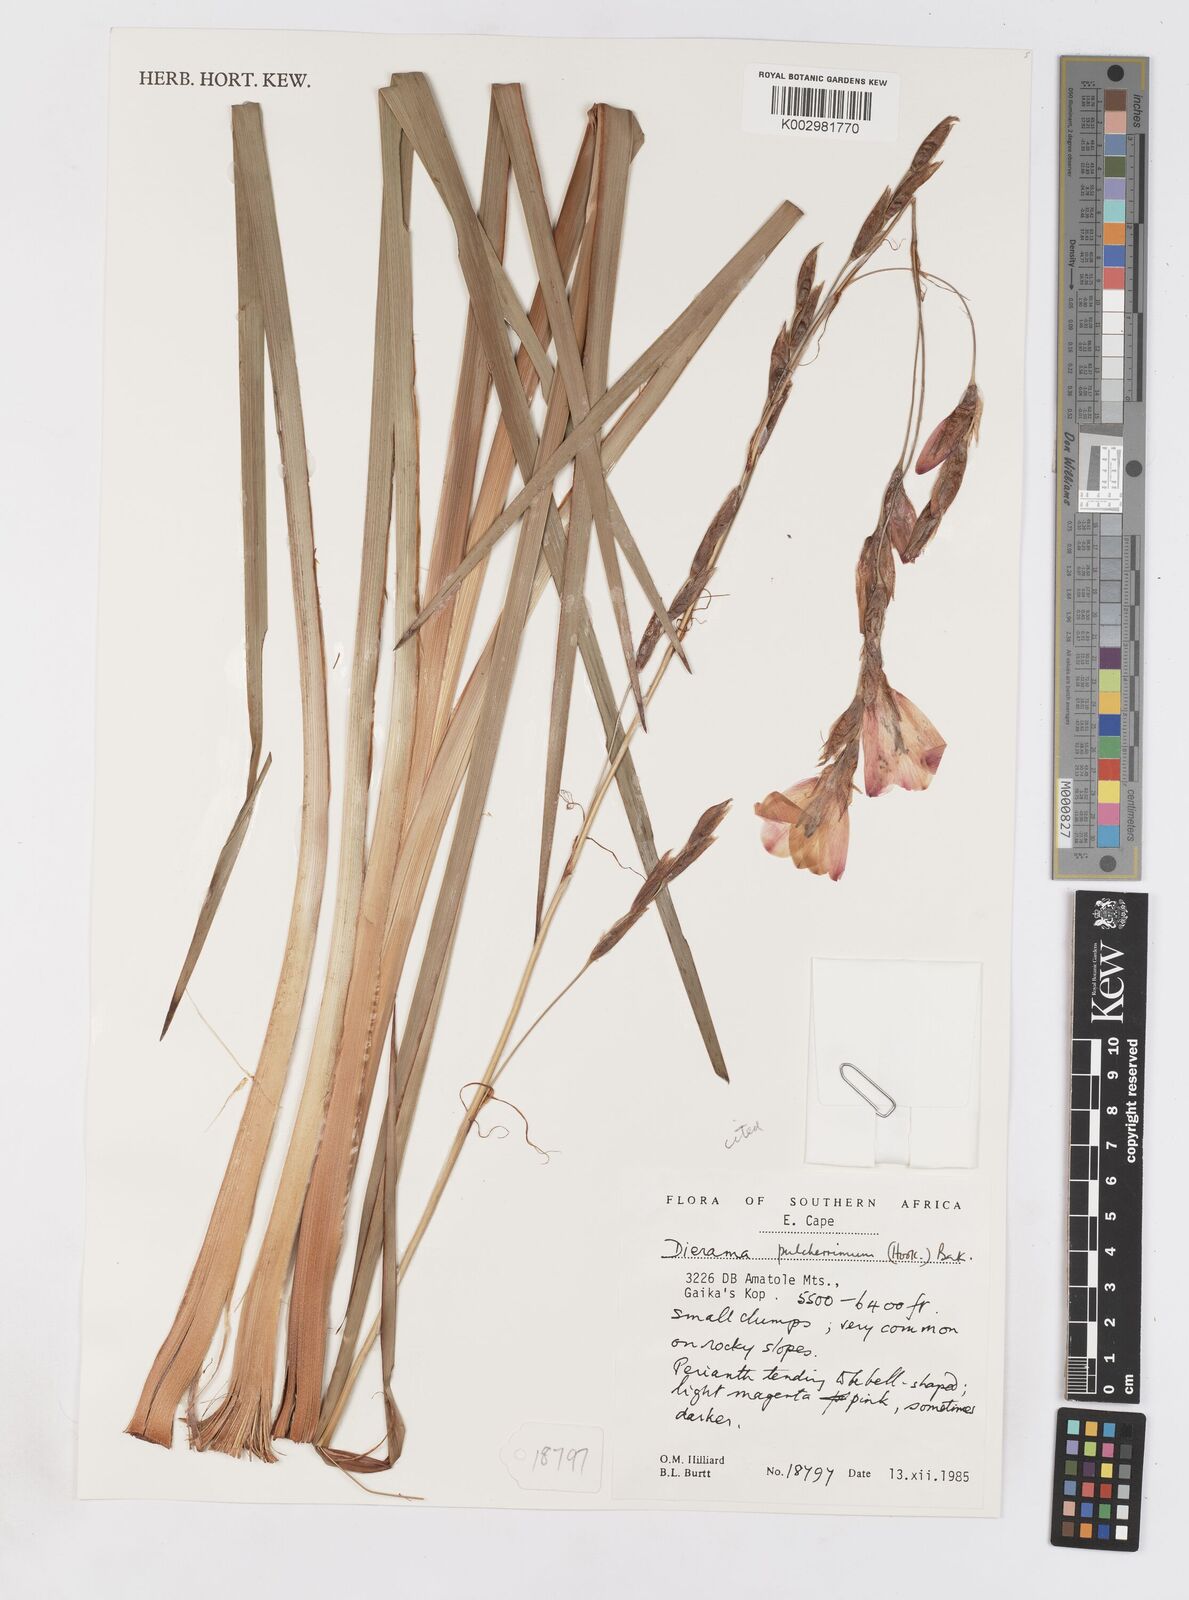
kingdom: Plantae
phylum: Tracheophyta
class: Liliopsida
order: Asparagales
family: Iridaceae
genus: Dierama
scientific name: Dierama pulcherrimum
